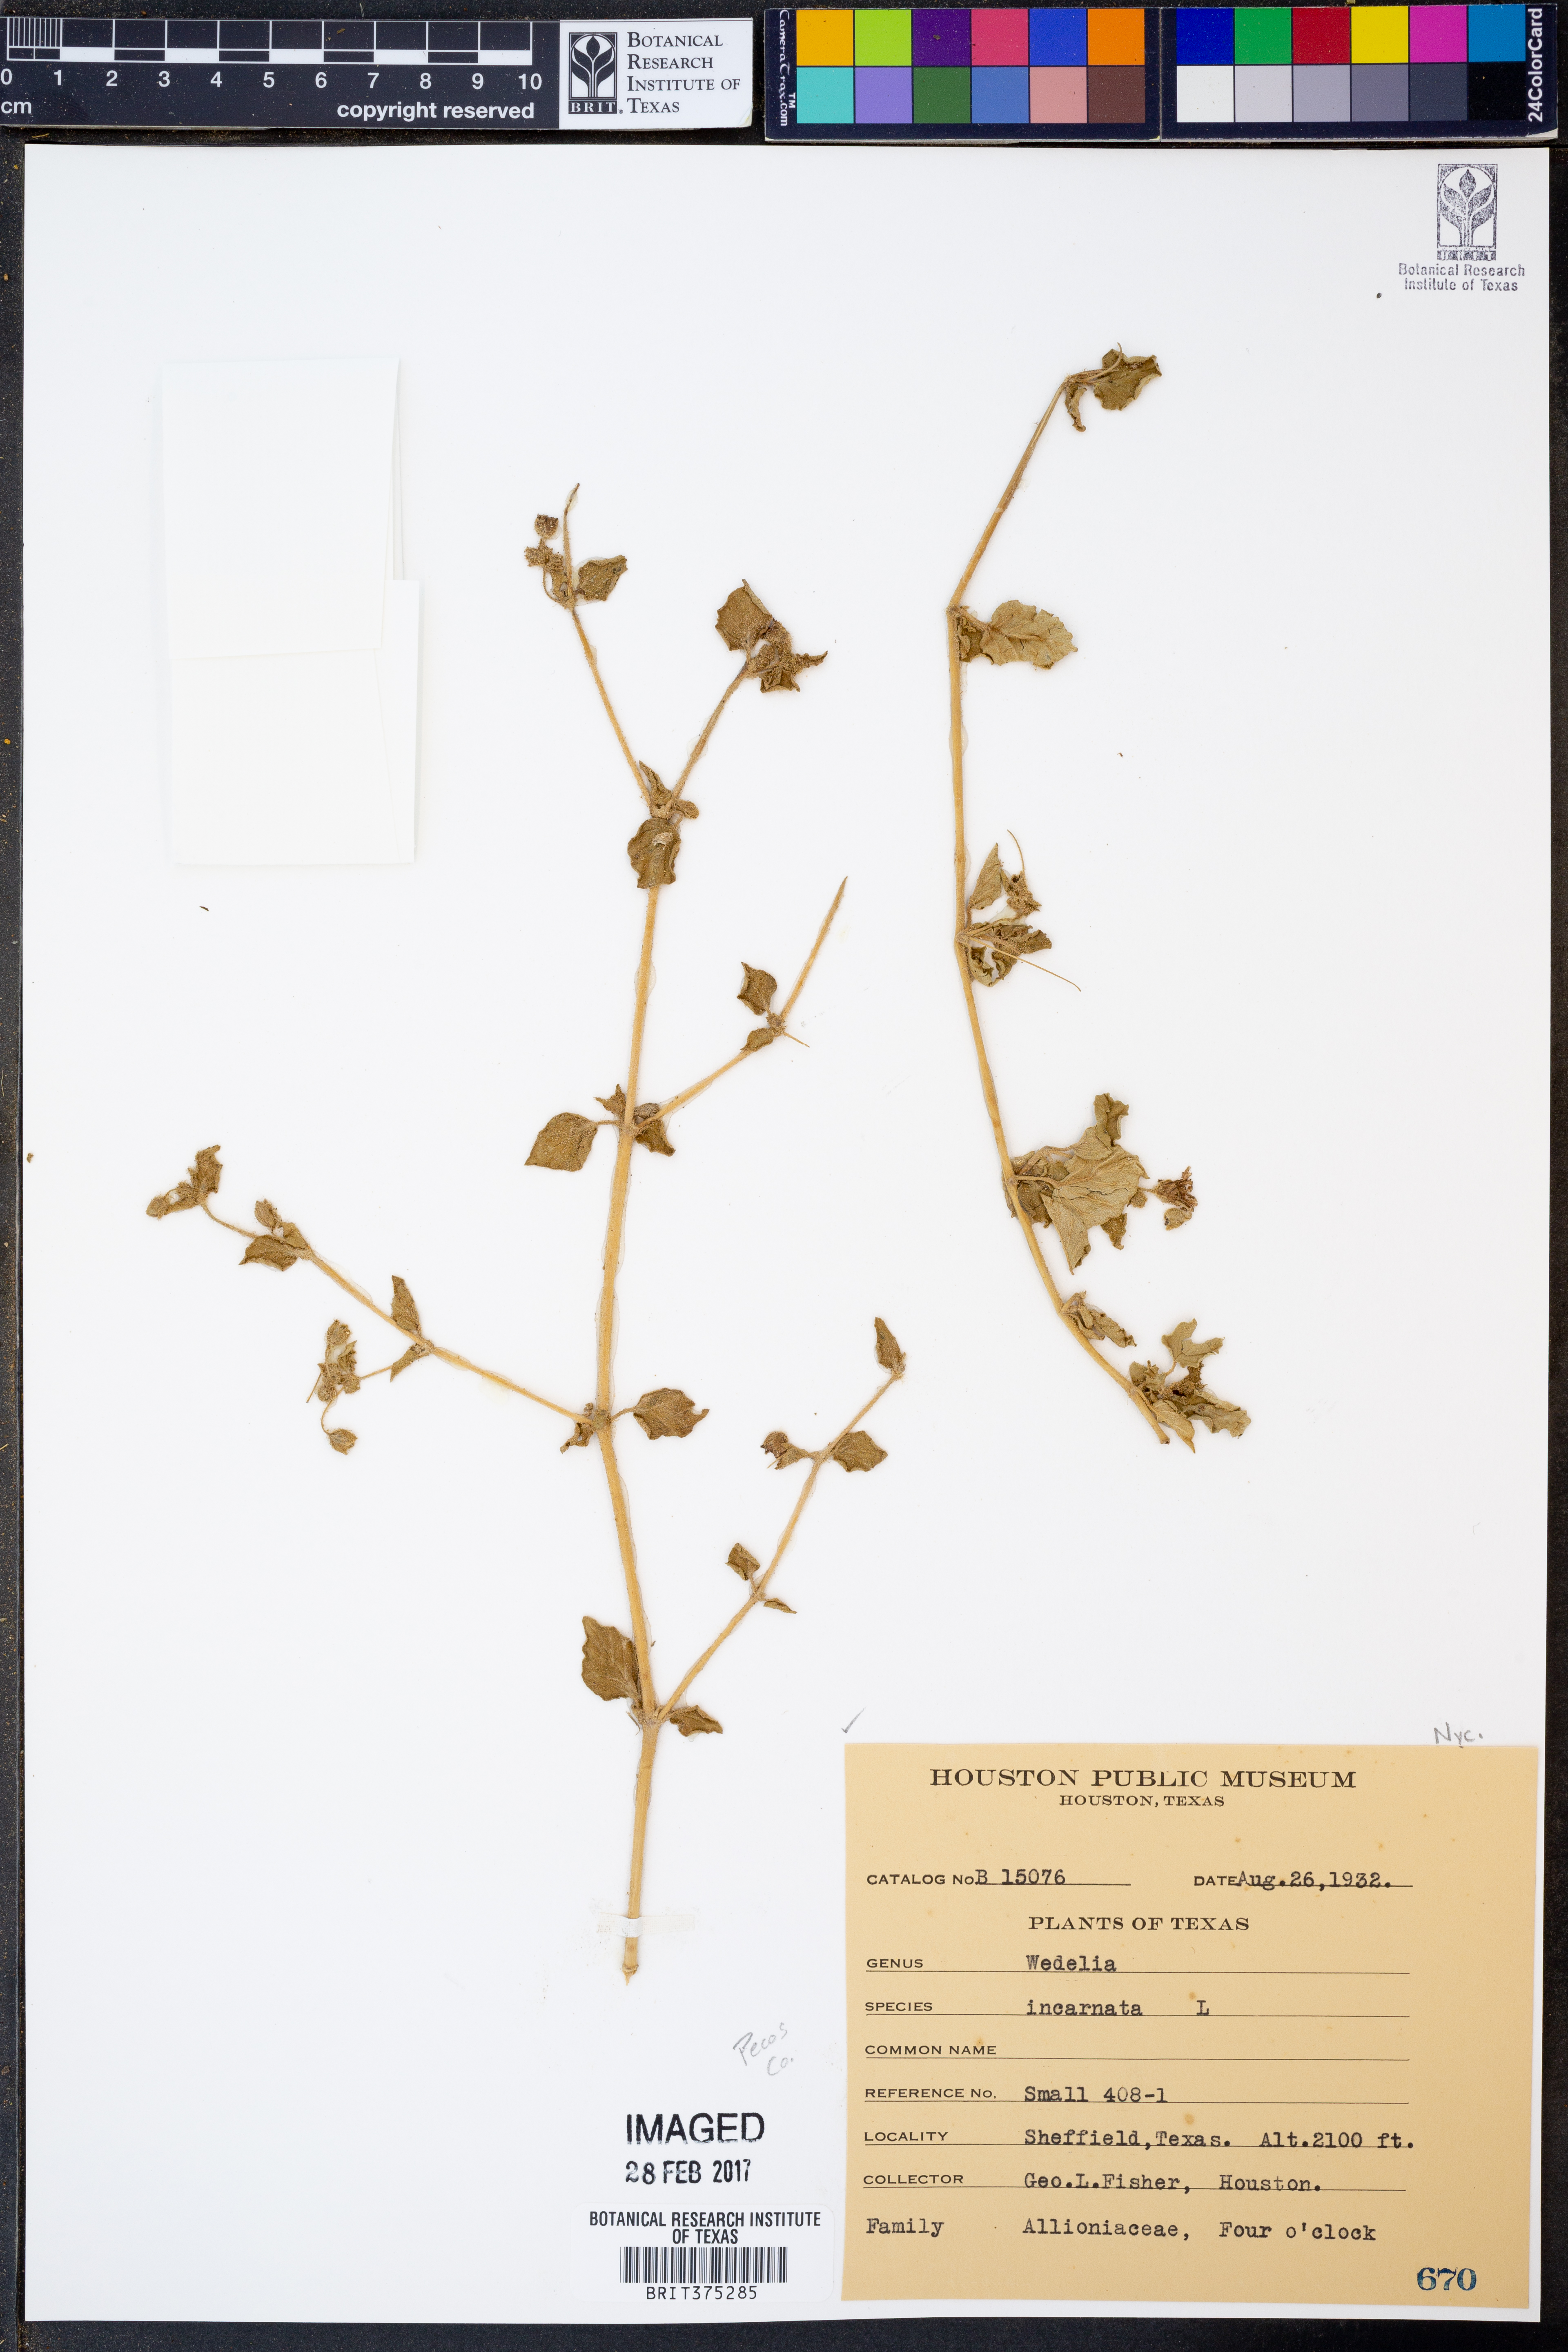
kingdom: Plantae
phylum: Tracheophyta
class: Magnoliopsida
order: Caryophyllales
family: Nyctaginaceae
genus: Allionia
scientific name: Allionia incarnata
